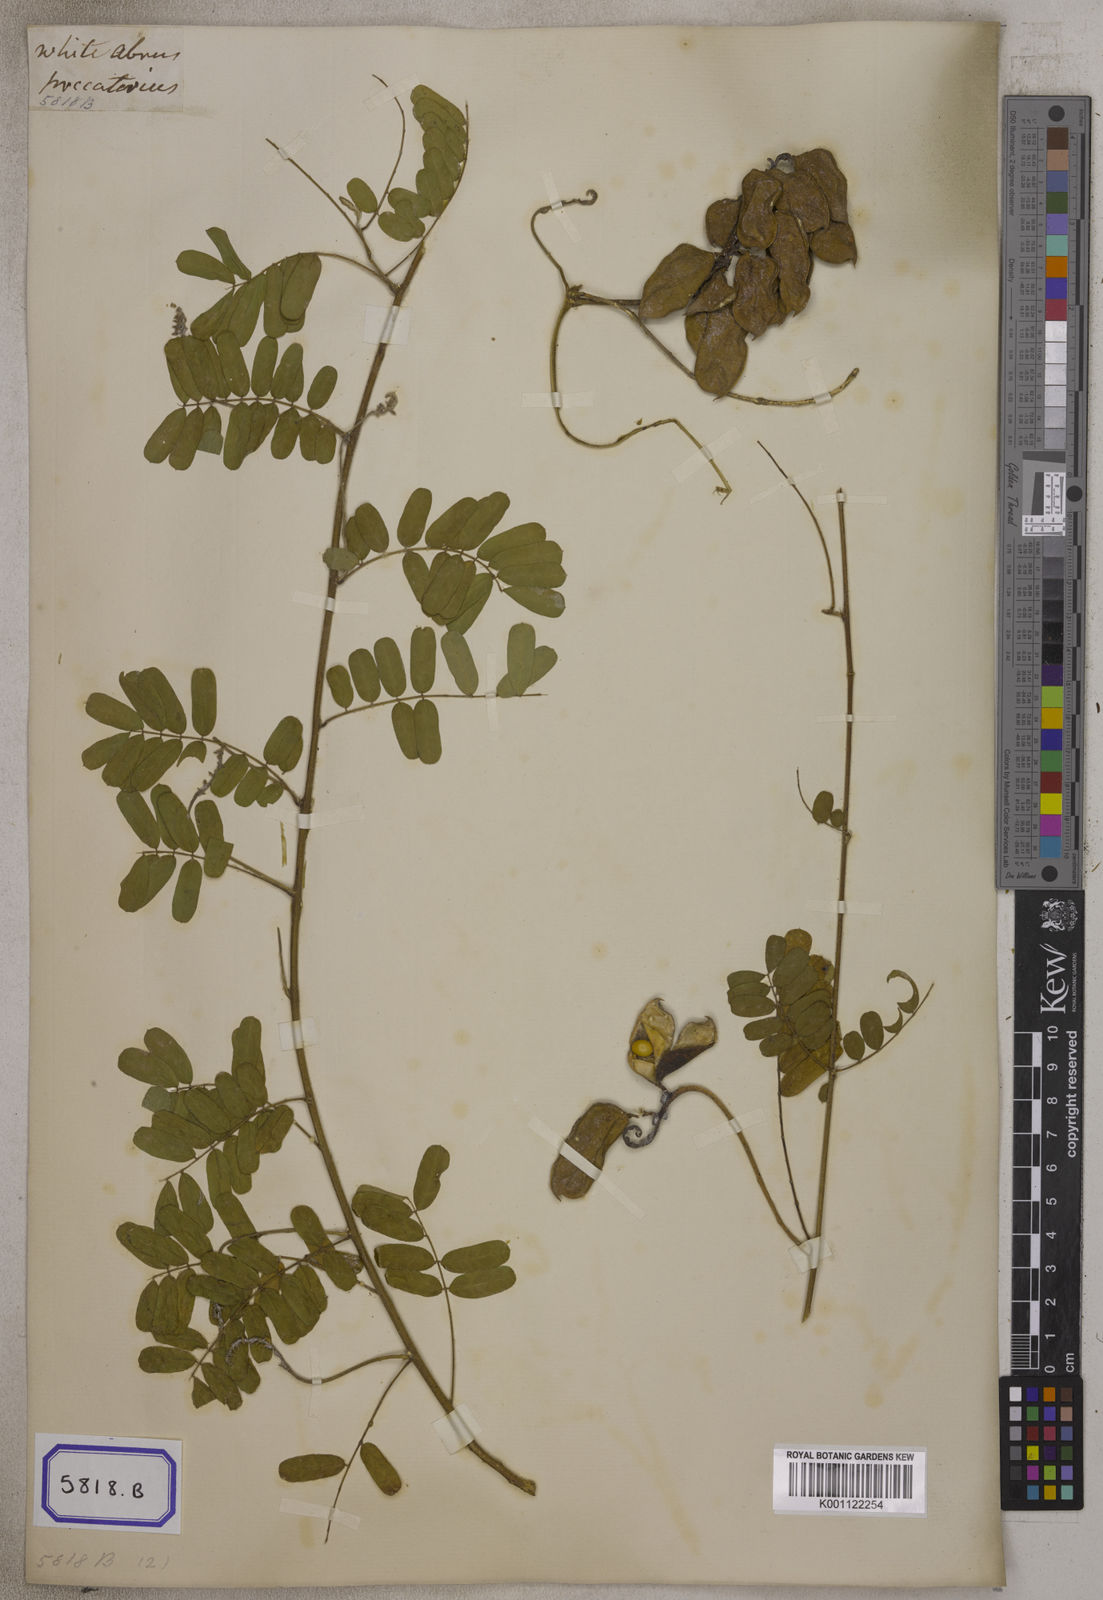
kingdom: Plantae
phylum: Tracheophyta
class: Magnoliopsida
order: Fabales
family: Fabaceae
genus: Abrus
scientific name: Abrus precatorius
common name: Rosarypea
